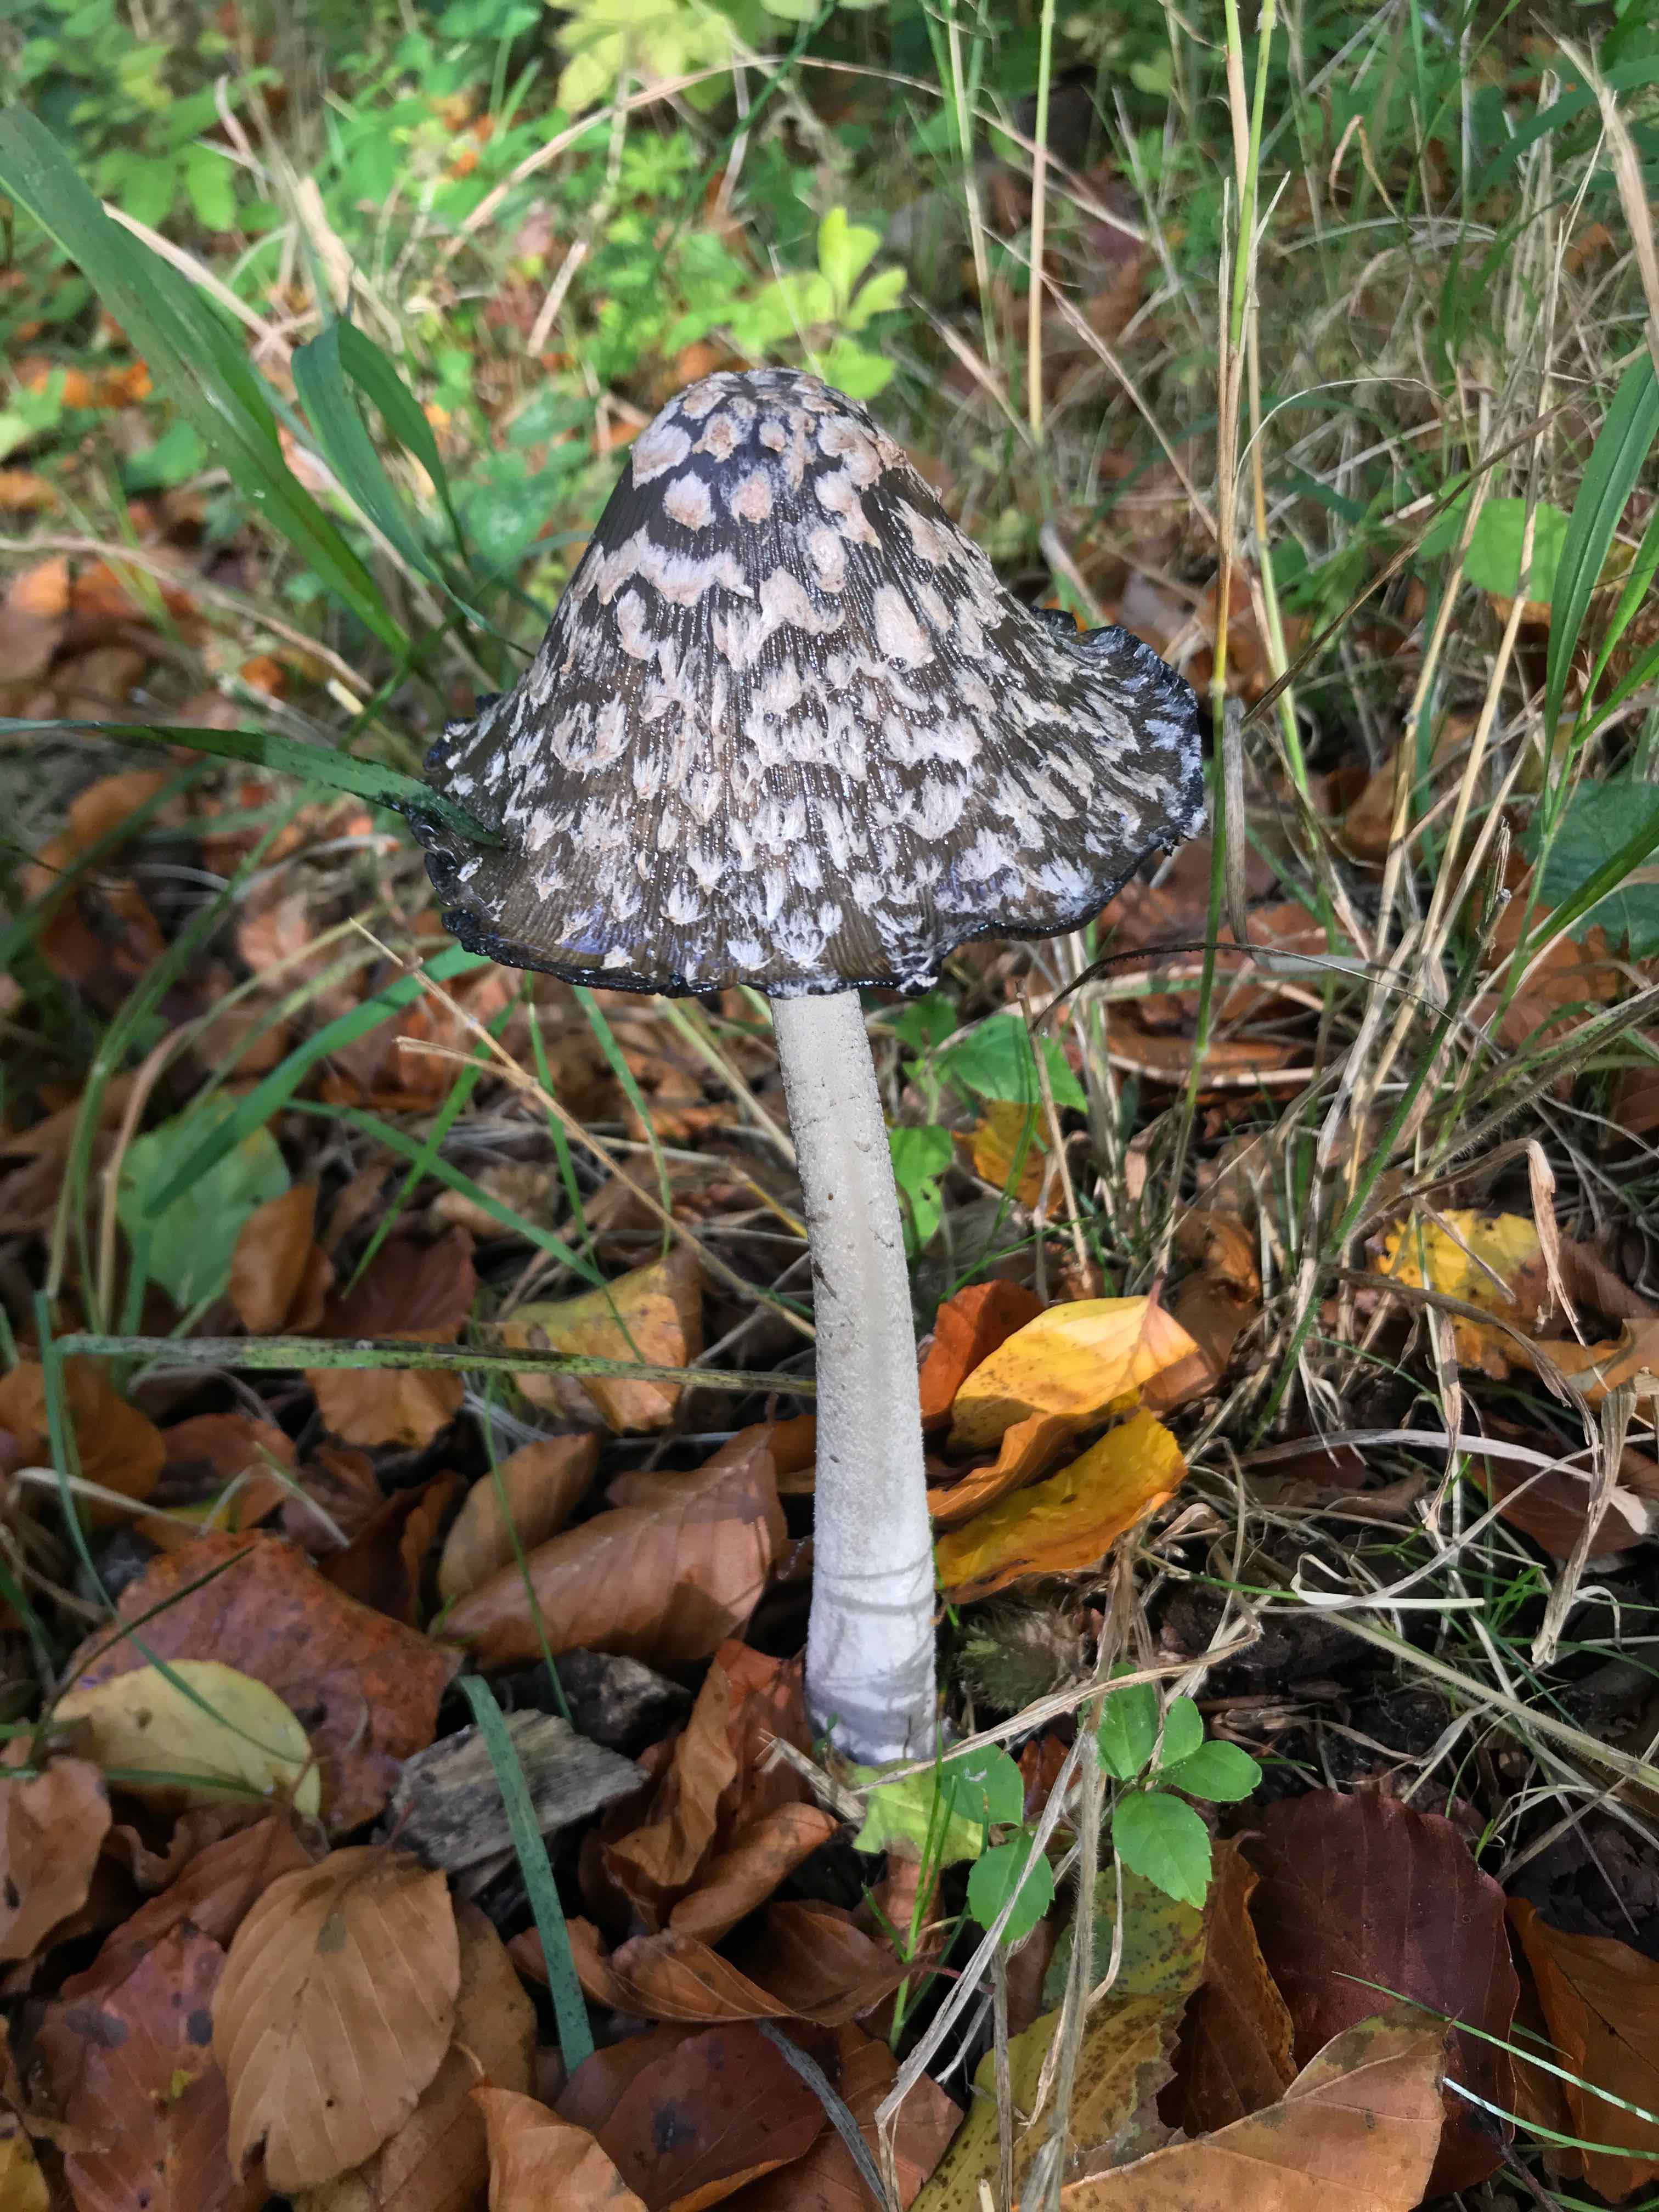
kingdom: Fungi
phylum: Basidiomycota
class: Agaricomycetes
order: Agaricales
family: Psathyrellaceae
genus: Coprinopsis
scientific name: Coprinopsis picacea
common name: skade-blækhat
